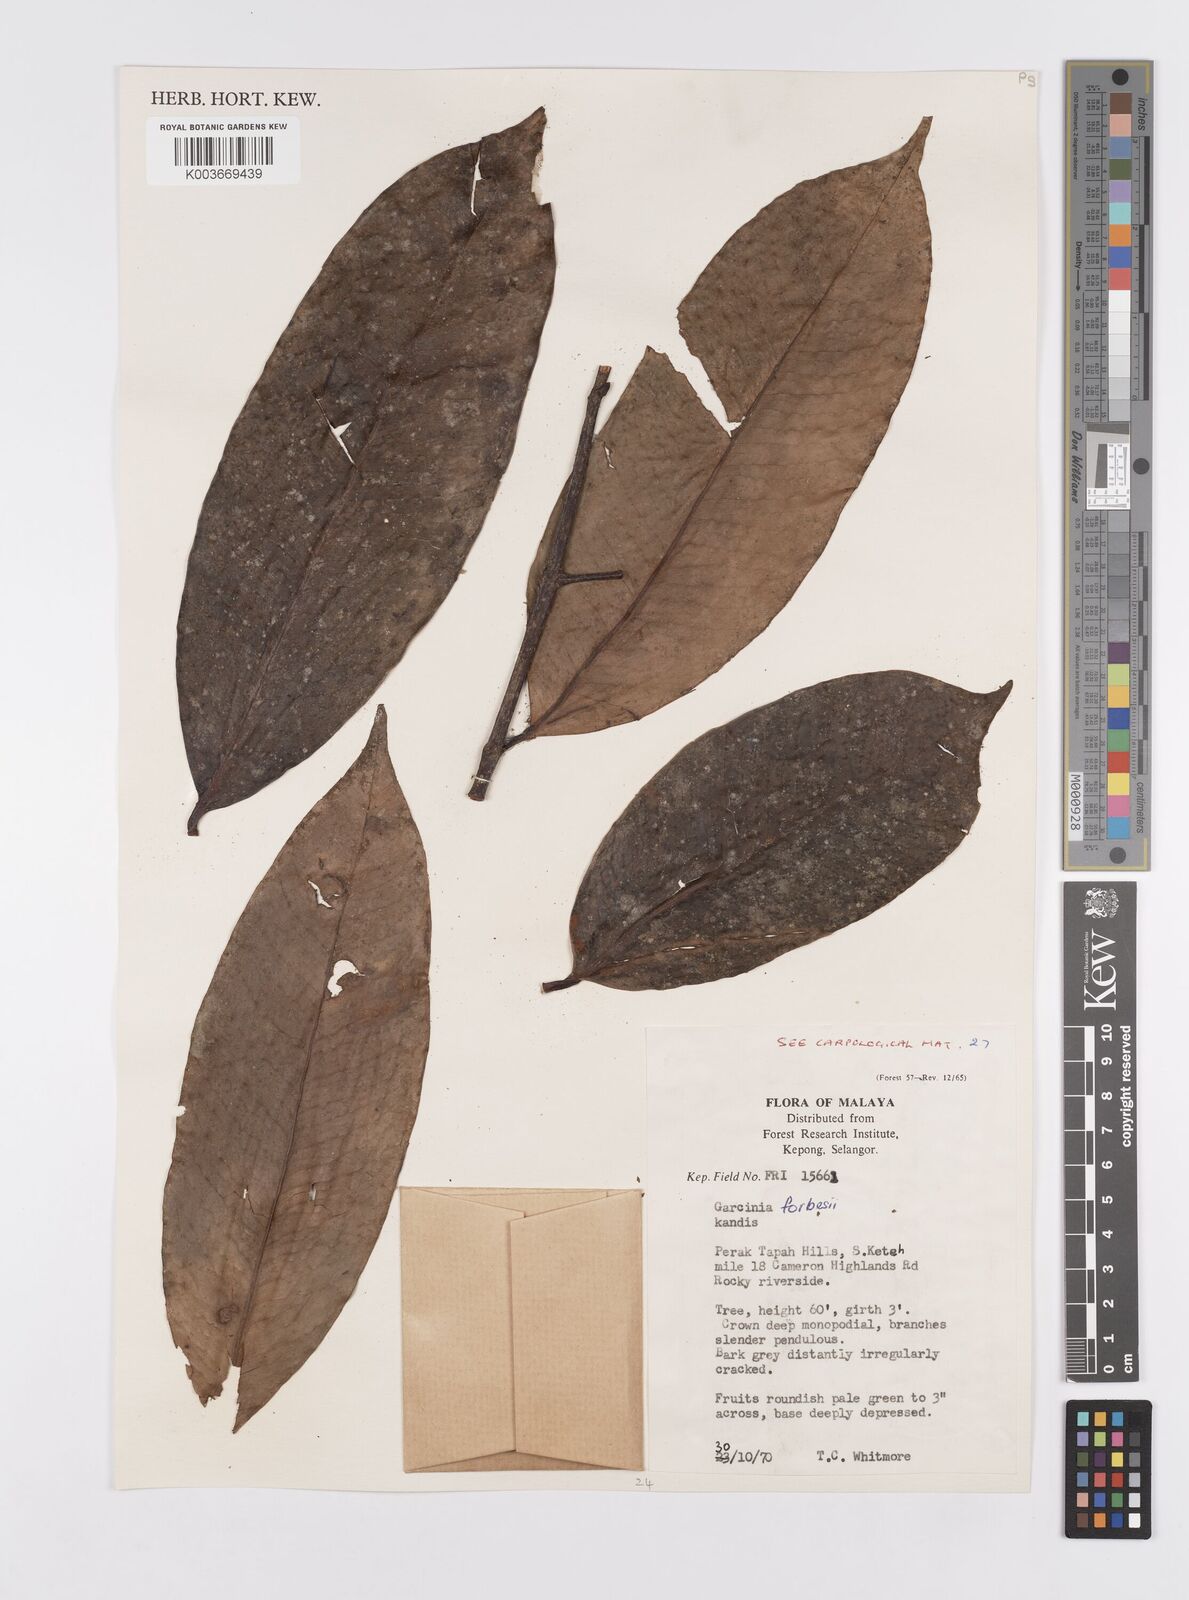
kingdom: Plantae
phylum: Tracheophyta
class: Magnoliopsida
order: Malpighiales
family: Clusiaceae
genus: Garcinia
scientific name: Garcinia forbesii
